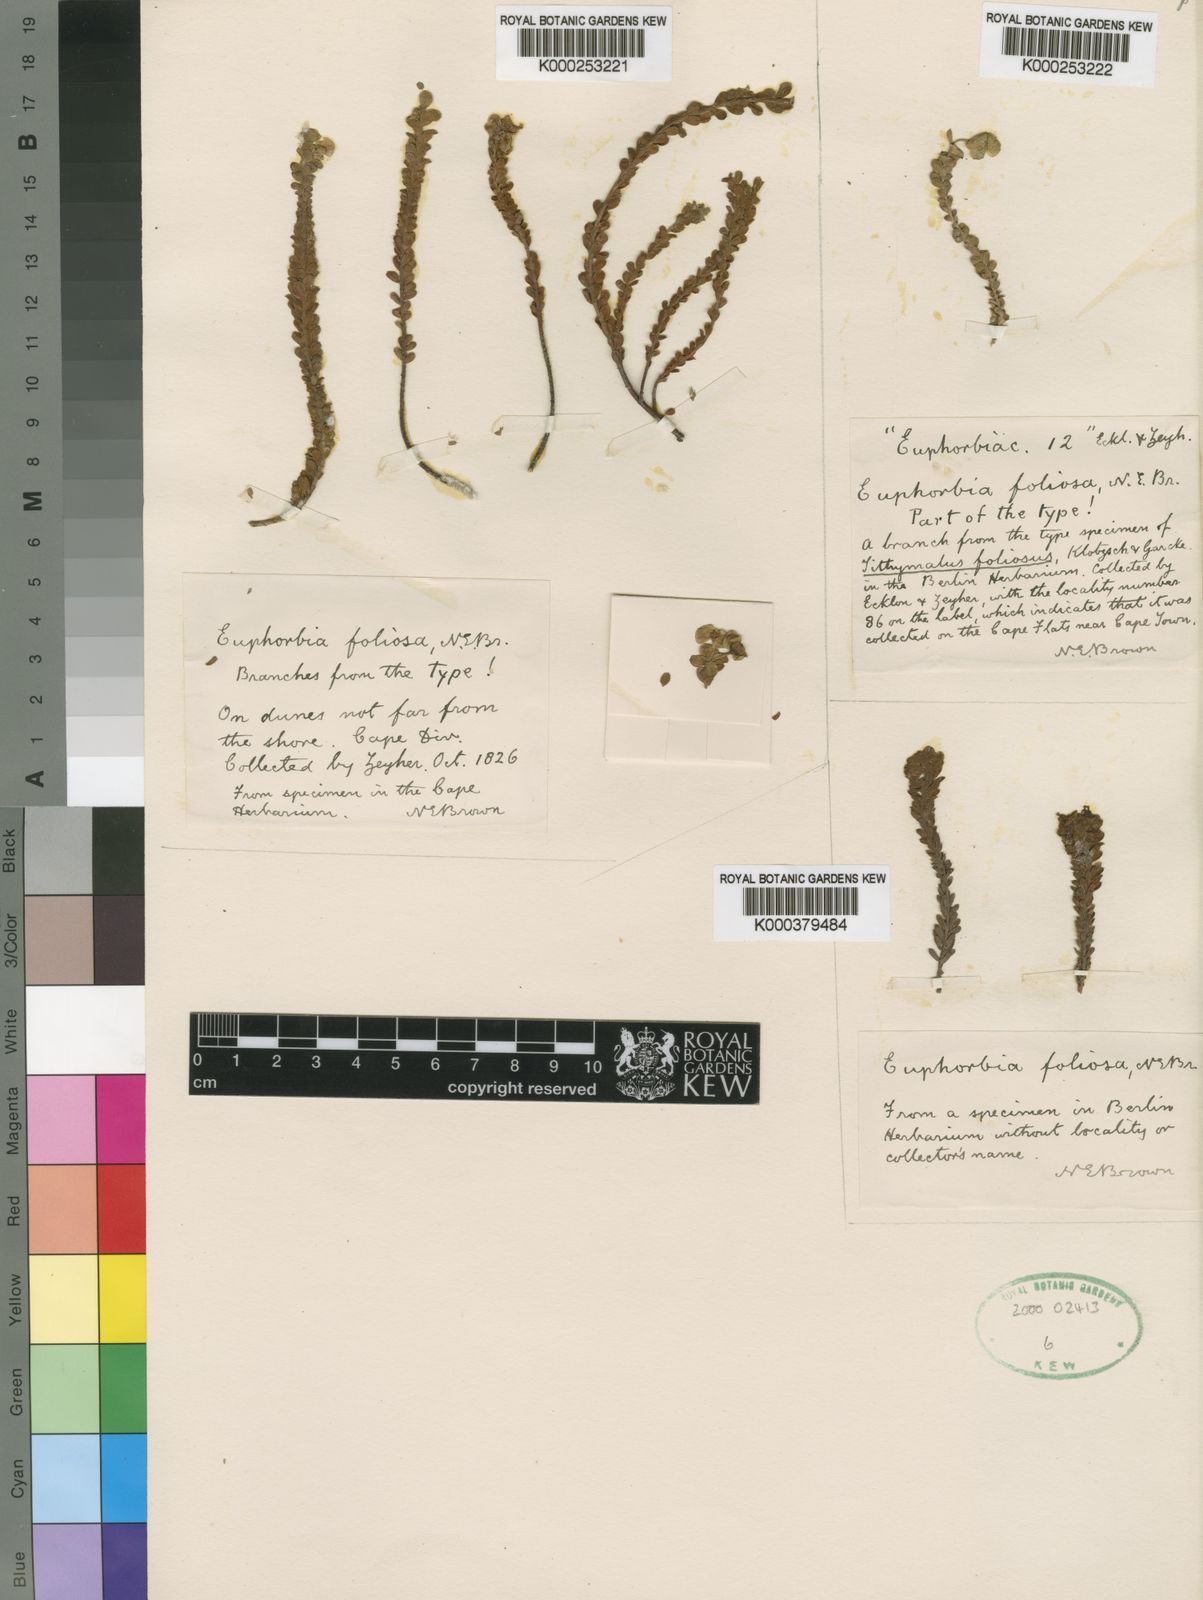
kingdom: Plantae
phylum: Tracheophyta
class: Magnoliopsida
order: Malpighiales
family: Euphorbiaceae
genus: Euphorbia
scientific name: Euphorbia foliosa
